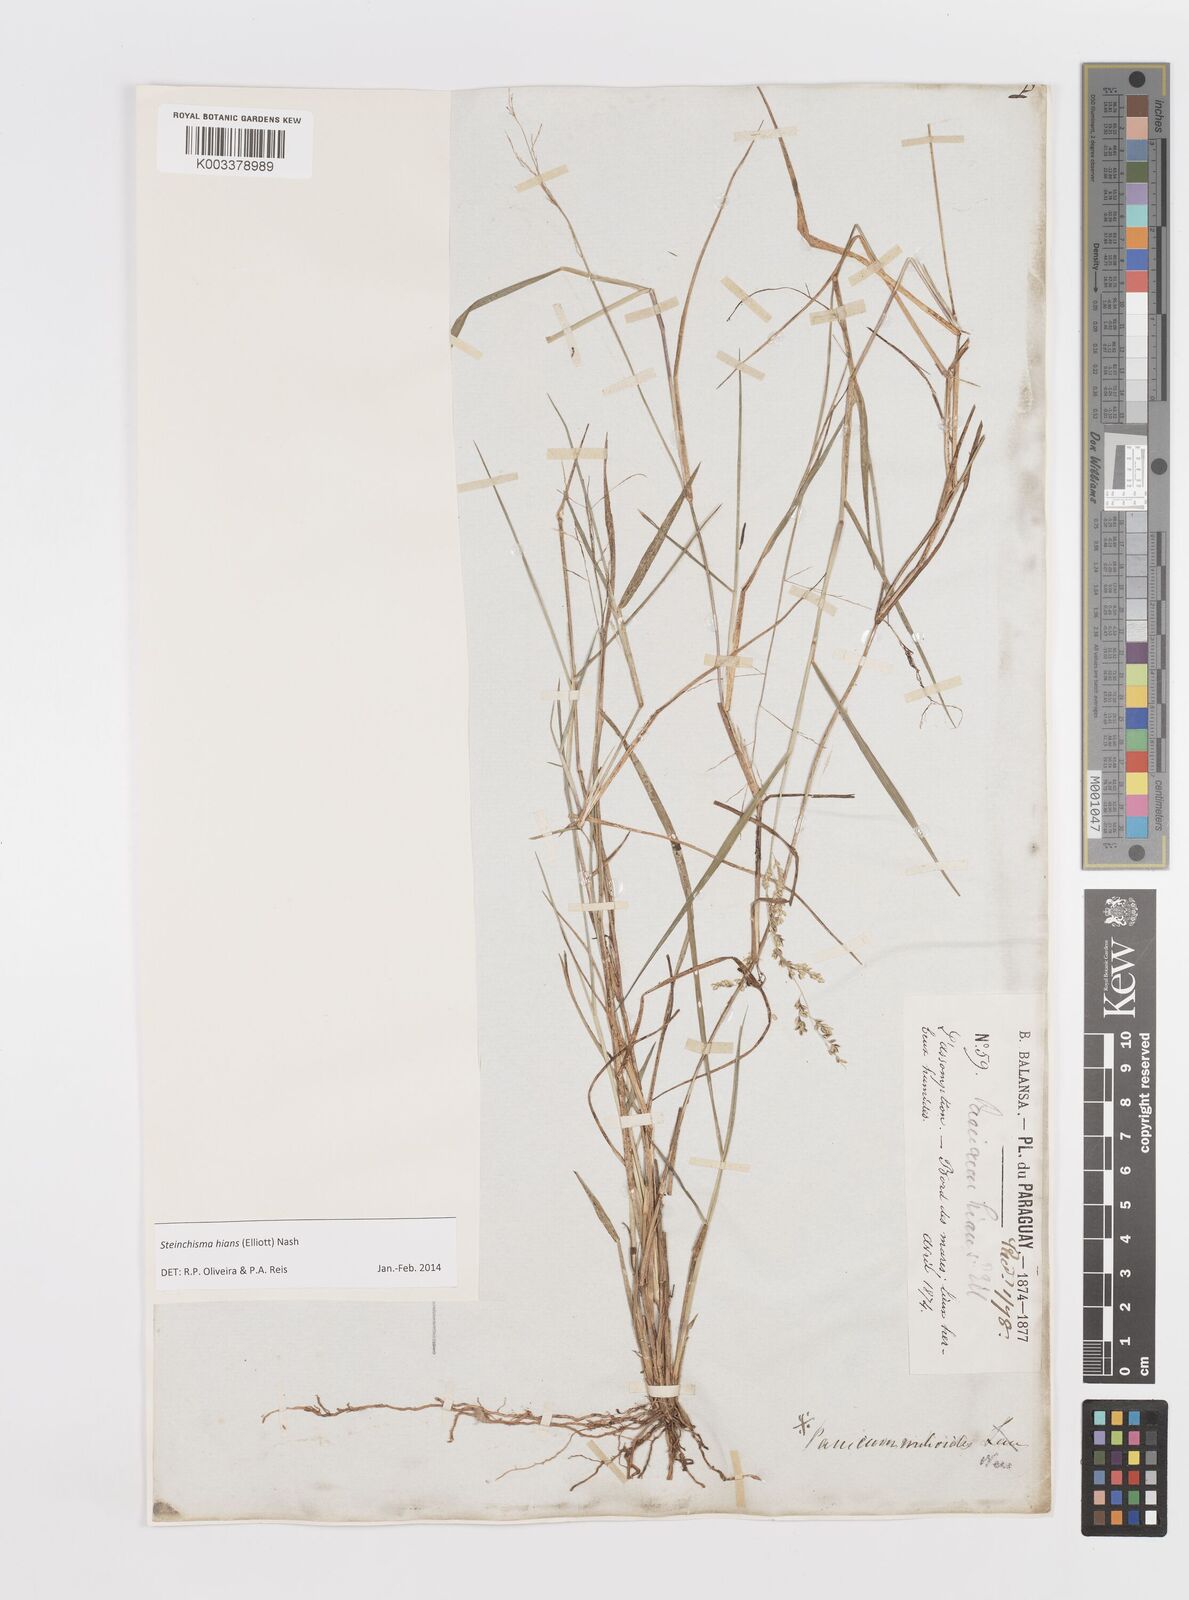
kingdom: Plantae
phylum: Tracheophyta
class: Liliopsida
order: Poales
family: Poaceae
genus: Steinchisma
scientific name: Steinchisma hians
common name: Gaping panic grass
